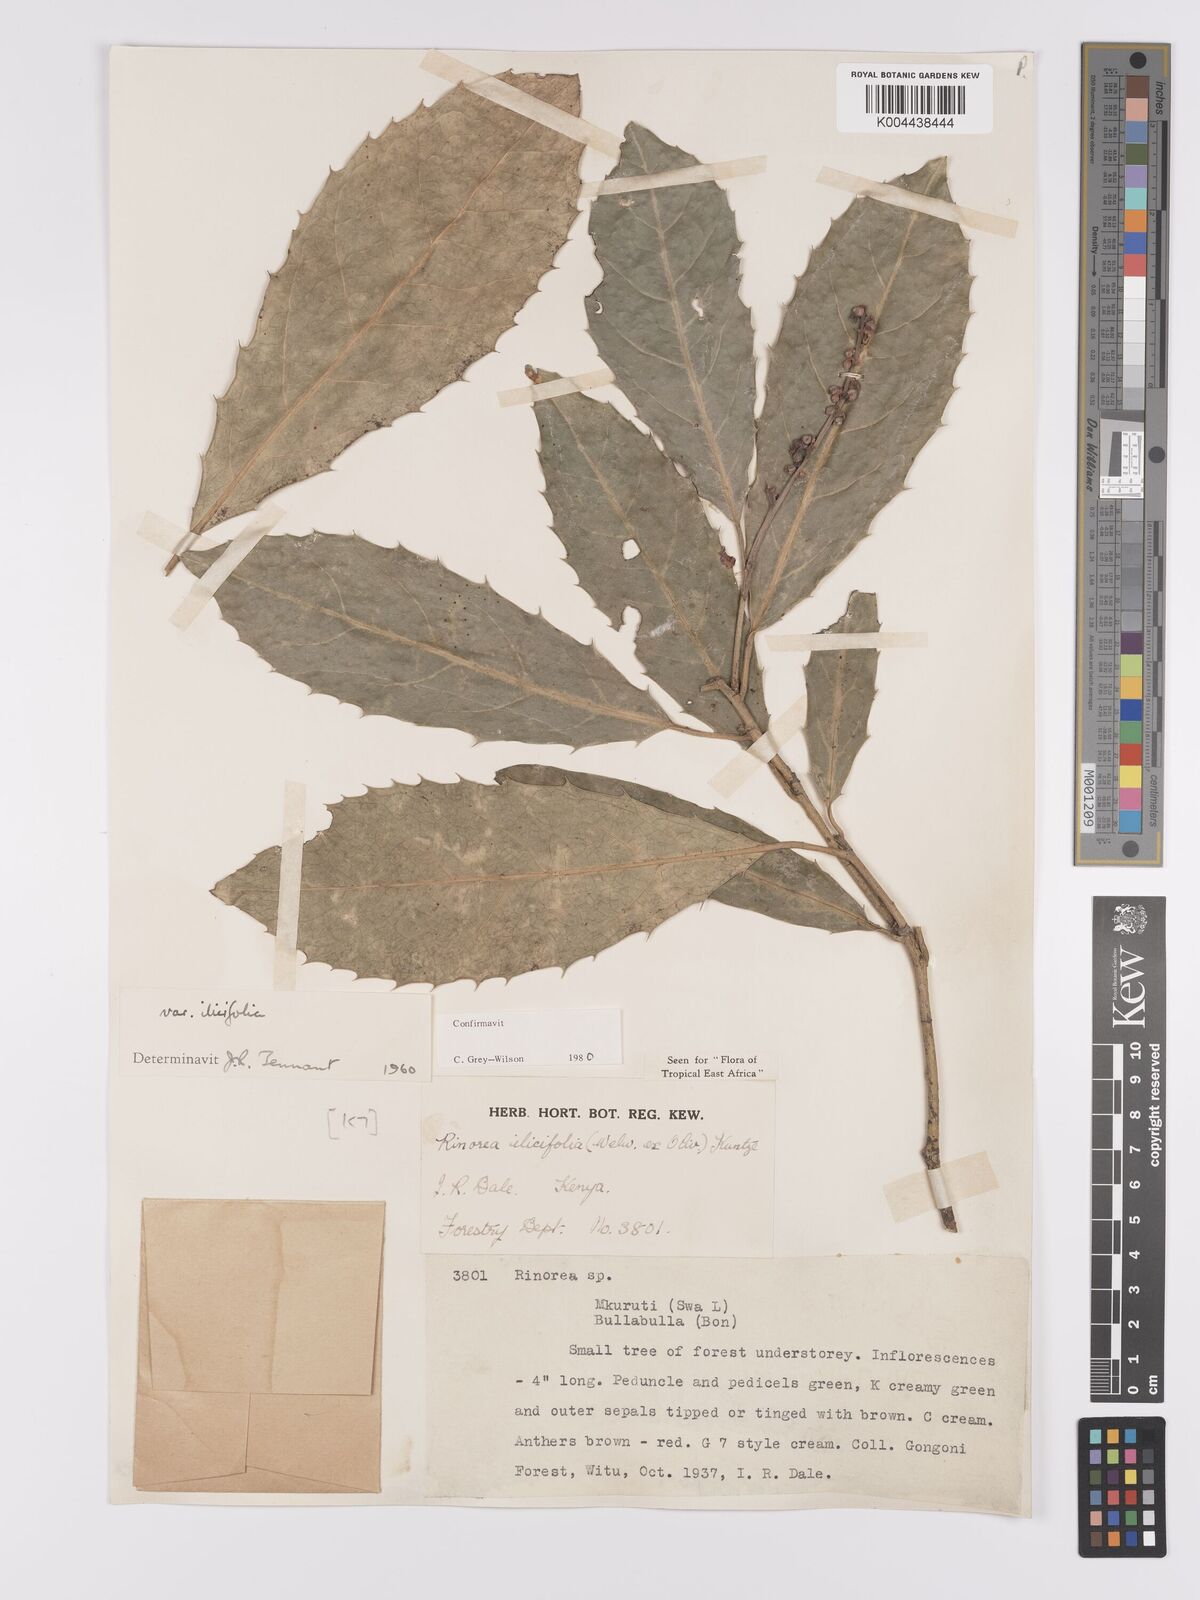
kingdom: Plantae
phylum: Tracheophyta
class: Magnoliopsida
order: Malpighiales
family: Violaceae
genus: Rinorea
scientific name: Rinorea ilicifolia
